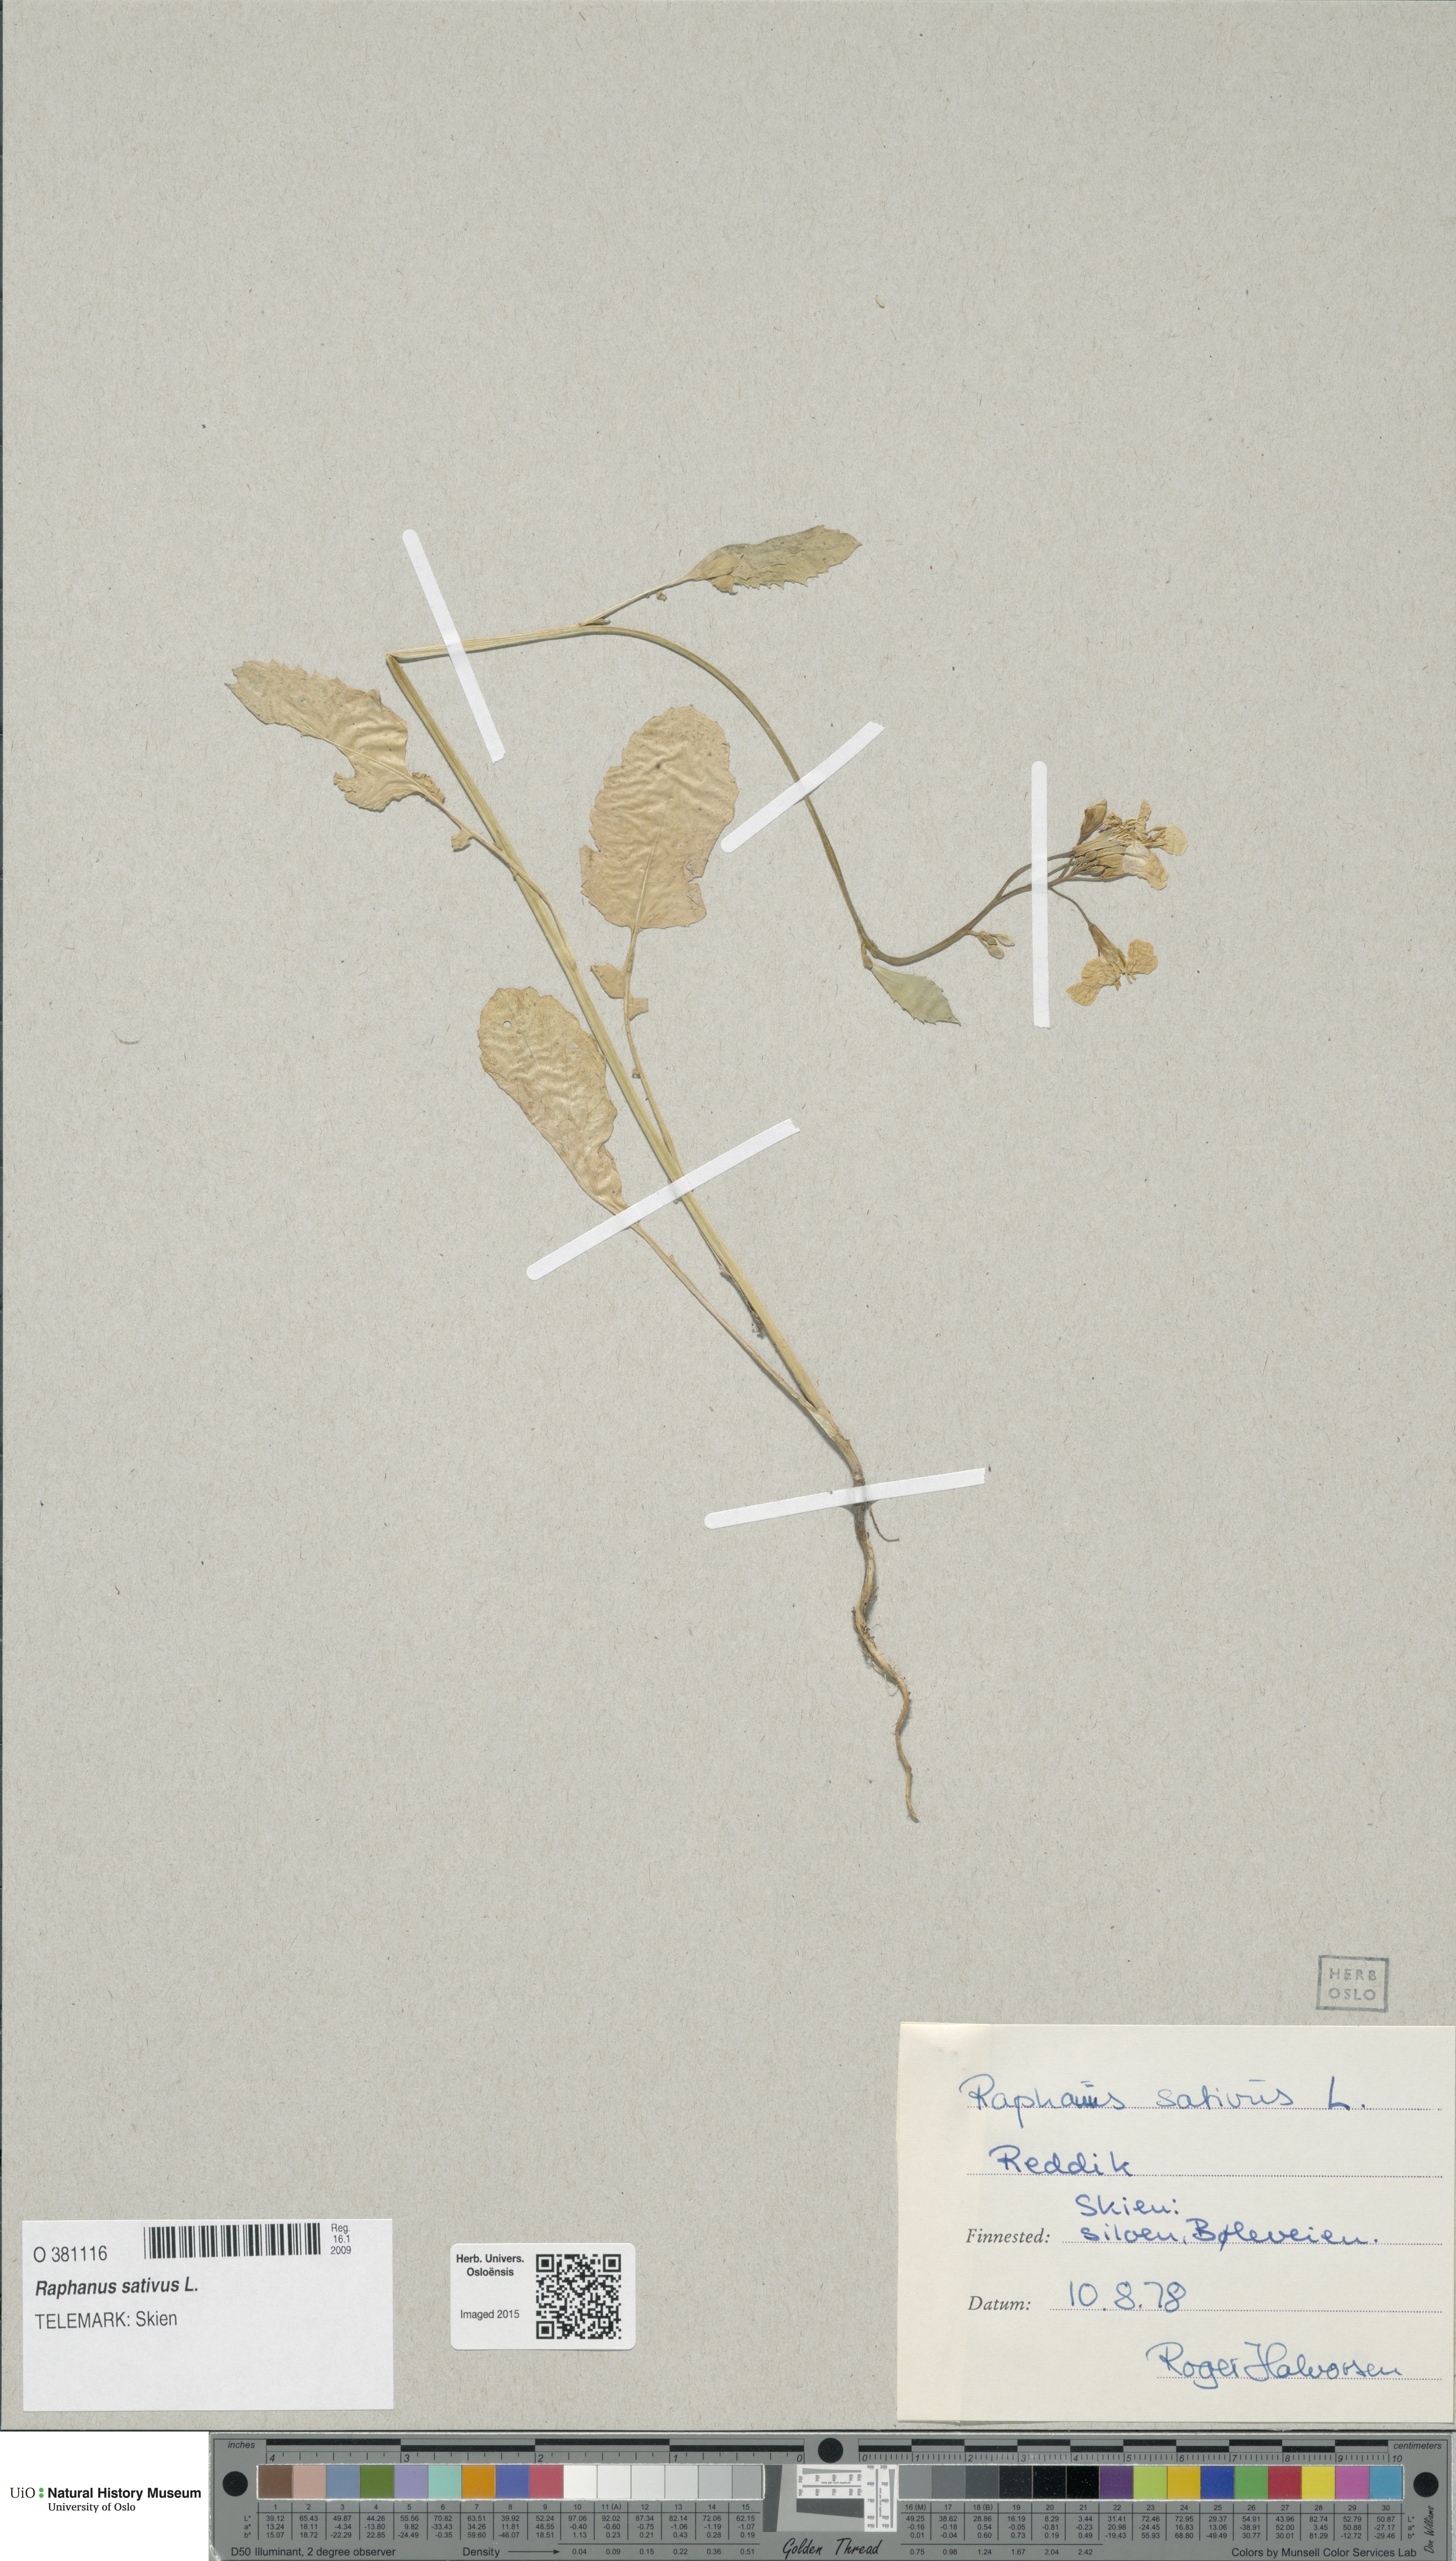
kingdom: Plantae
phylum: Tracheophyta
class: Magnoliopsida
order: Brassicales
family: Brassicaceae
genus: Raphanus
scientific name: Raphanus sativus
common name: Cultivated radish
